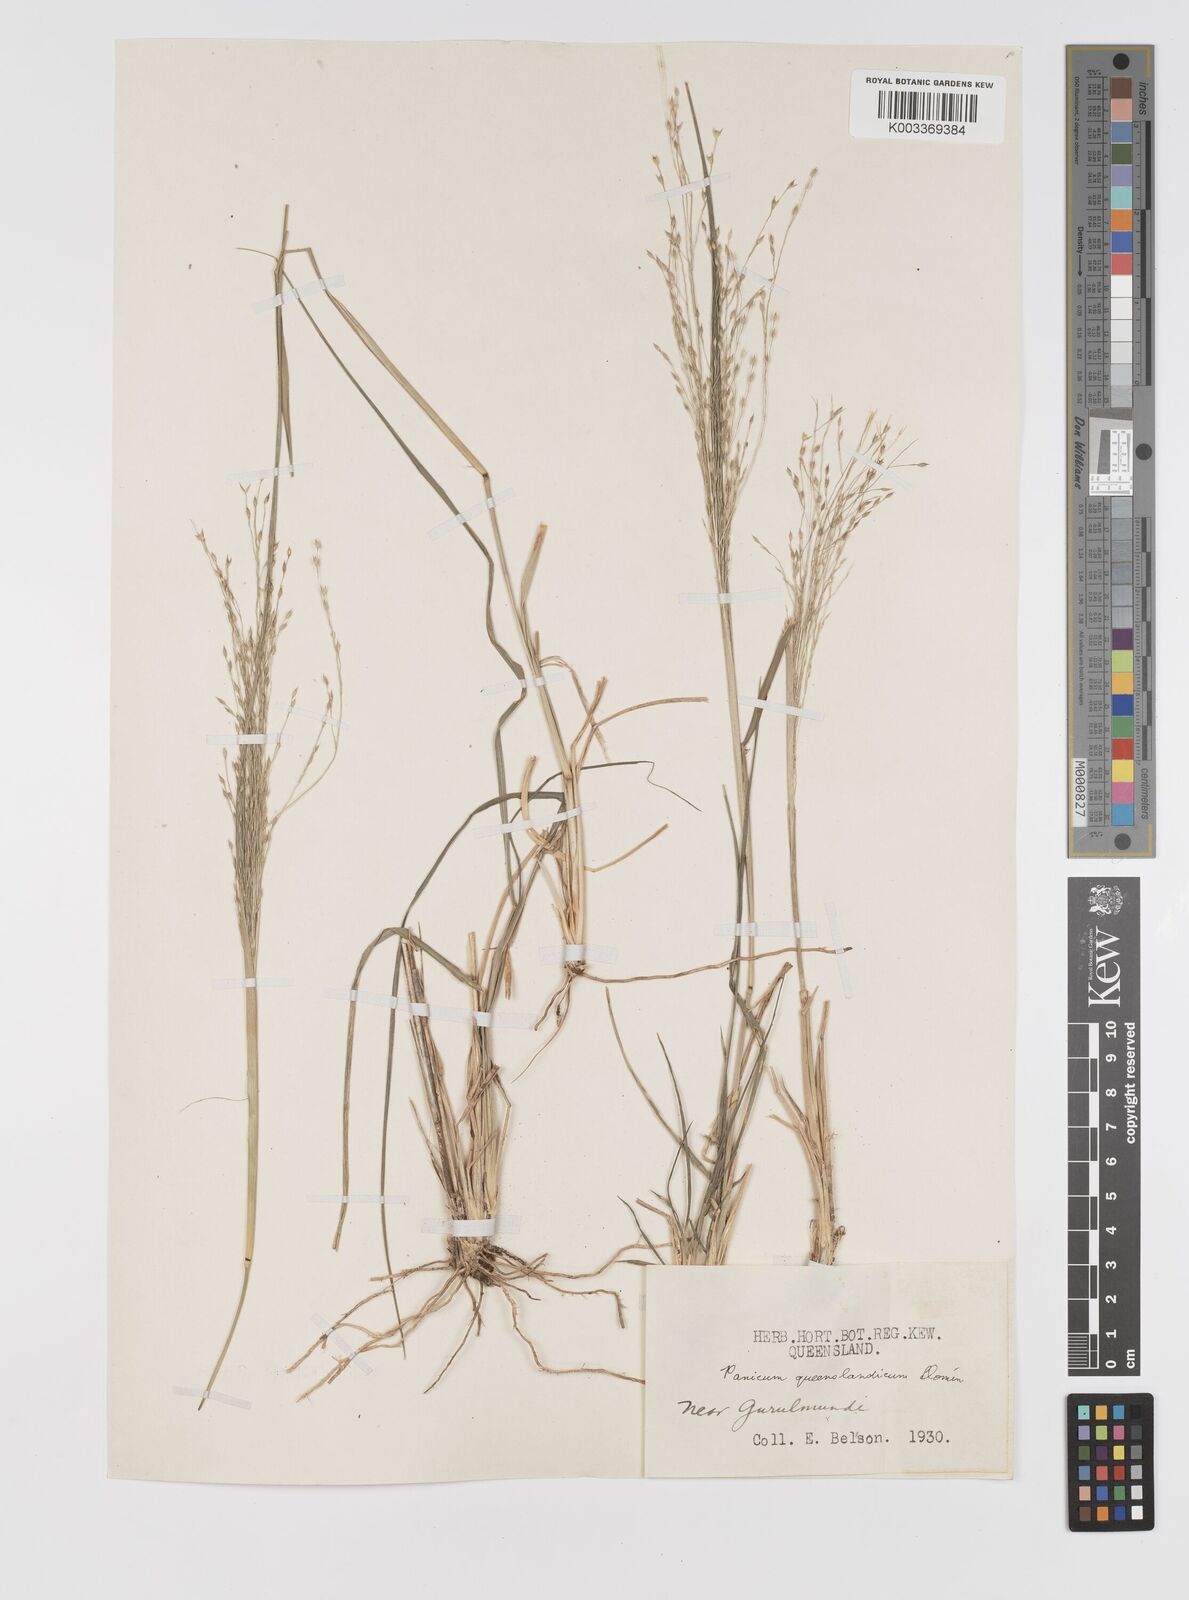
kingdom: Plantae
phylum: Tracheophyta
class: Liliopsida
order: Poales
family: Poaceae
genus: Panicum
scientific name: Panicum queenslandicum
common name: Yabila grass
